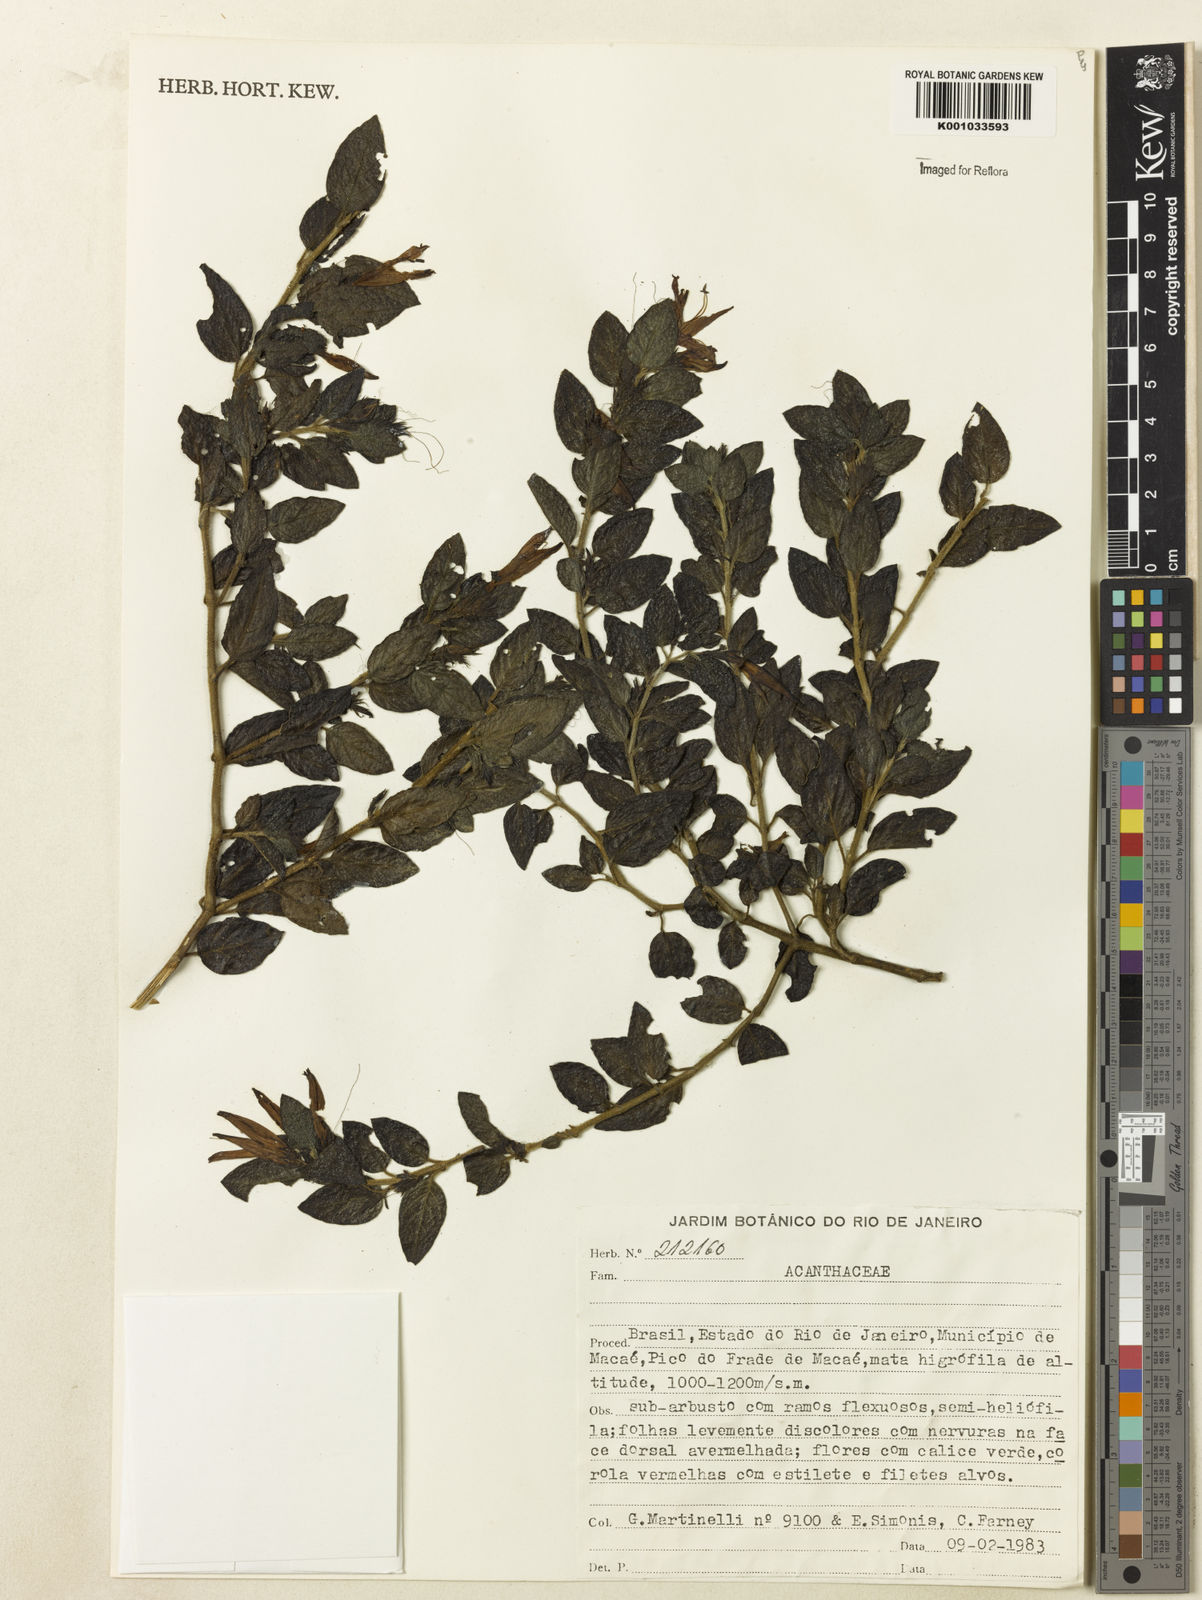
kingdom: Plantae
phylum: Tracheophyta
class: Magnoliopsida
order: Lamiales
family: Acanthaceae
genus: Justicia
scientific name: Justicia
